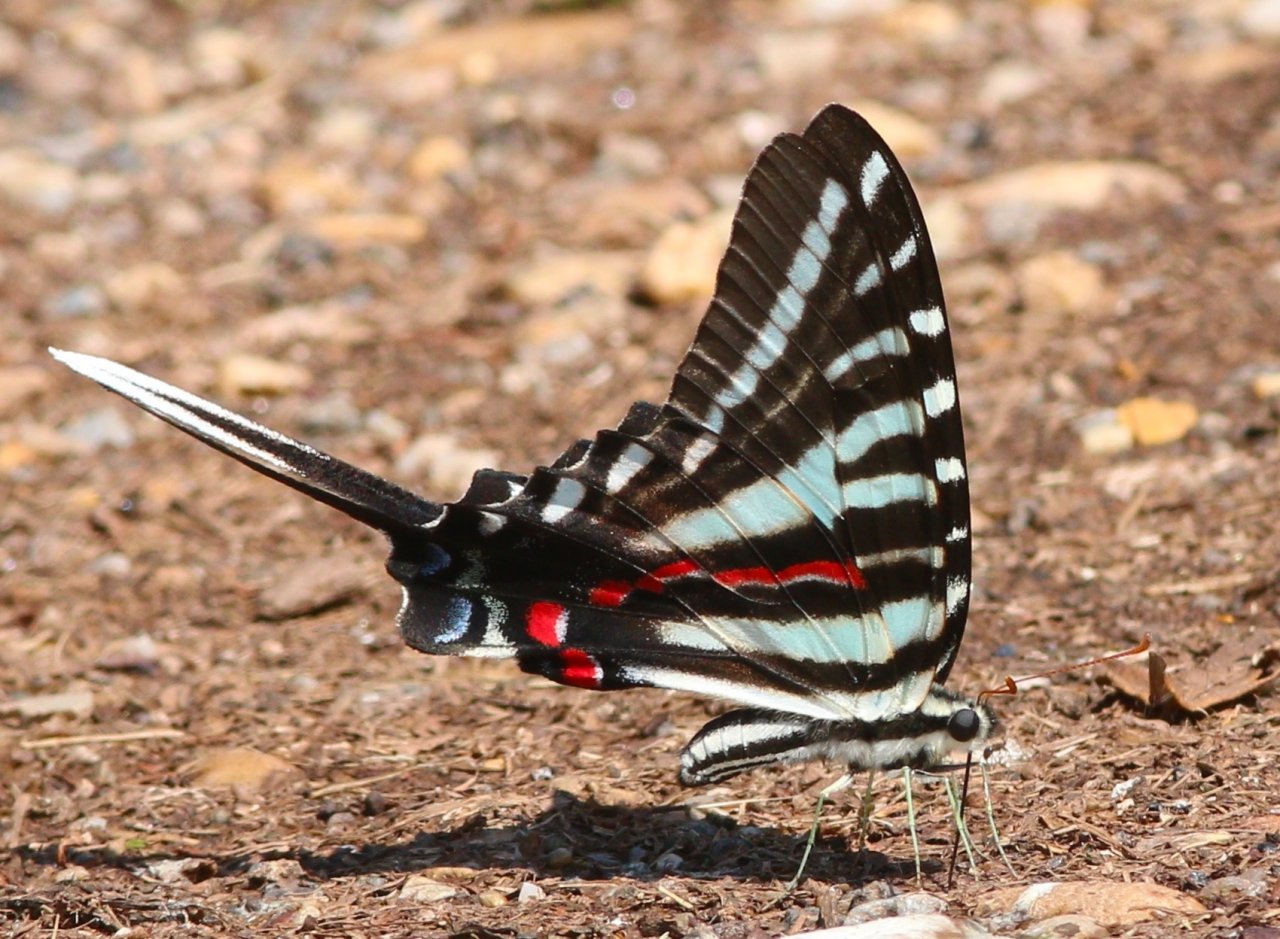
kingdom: Animalia
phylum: Arthropoda
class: Insecta
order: Lepidoptera
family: Papilionidae
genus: Protographium
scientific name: Protographium marcellus
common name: Zebra Swallowtail
